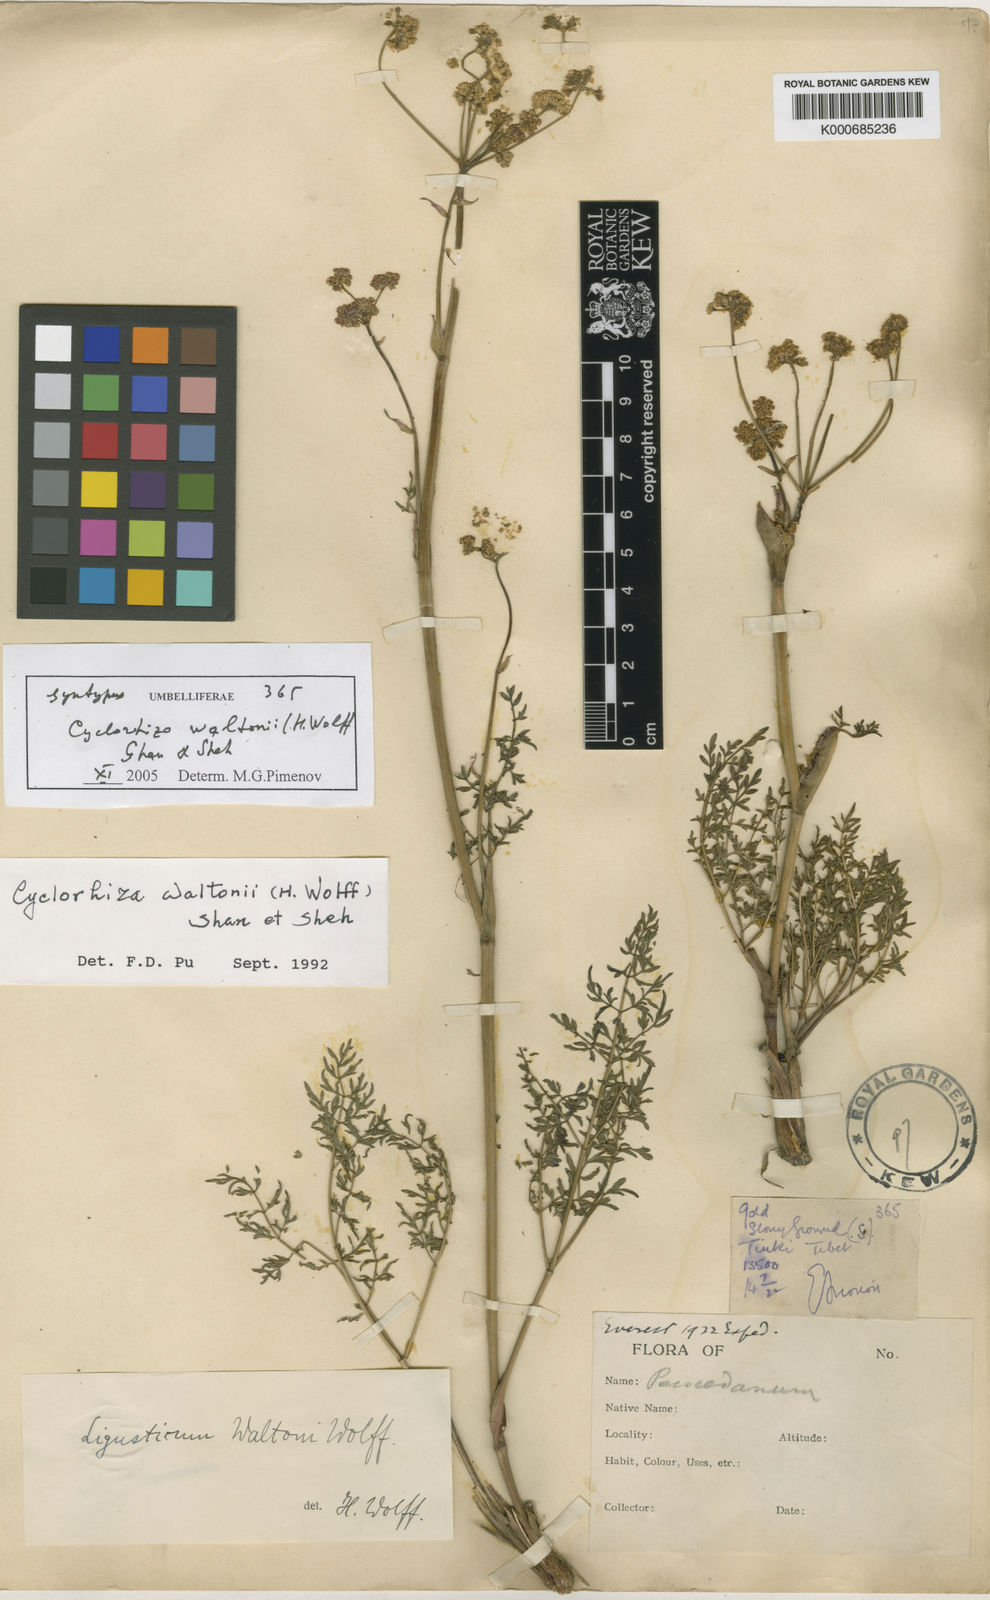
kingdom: Plantae
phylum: Tracheophyta
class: Magnoliopsida
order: Apiales
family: Apiaceae
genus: Cyclorhiza
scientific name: Cyclorhiza waltonii
